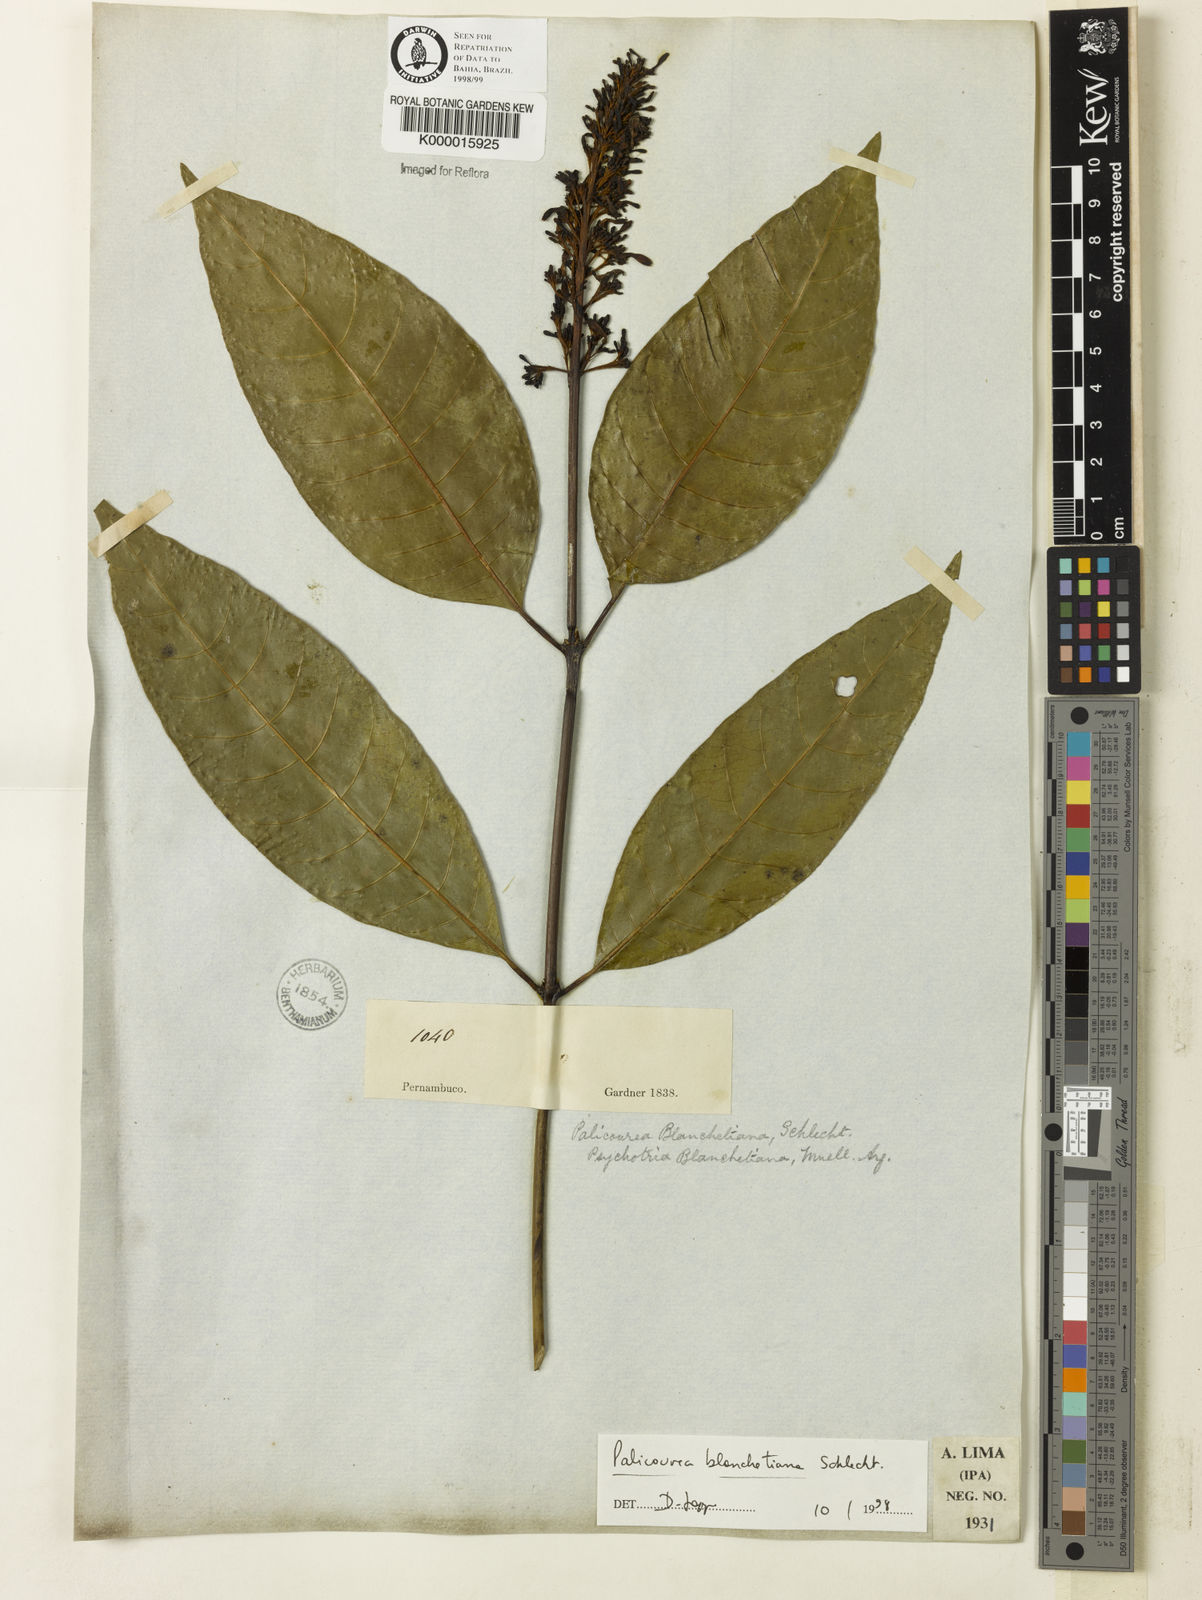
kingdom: Plantae
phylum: Tracheophyta
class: Magnoliopsida
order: Gentianales
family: Rubiaceae
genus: Palicourea
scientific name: Palicourea blanchetiana
